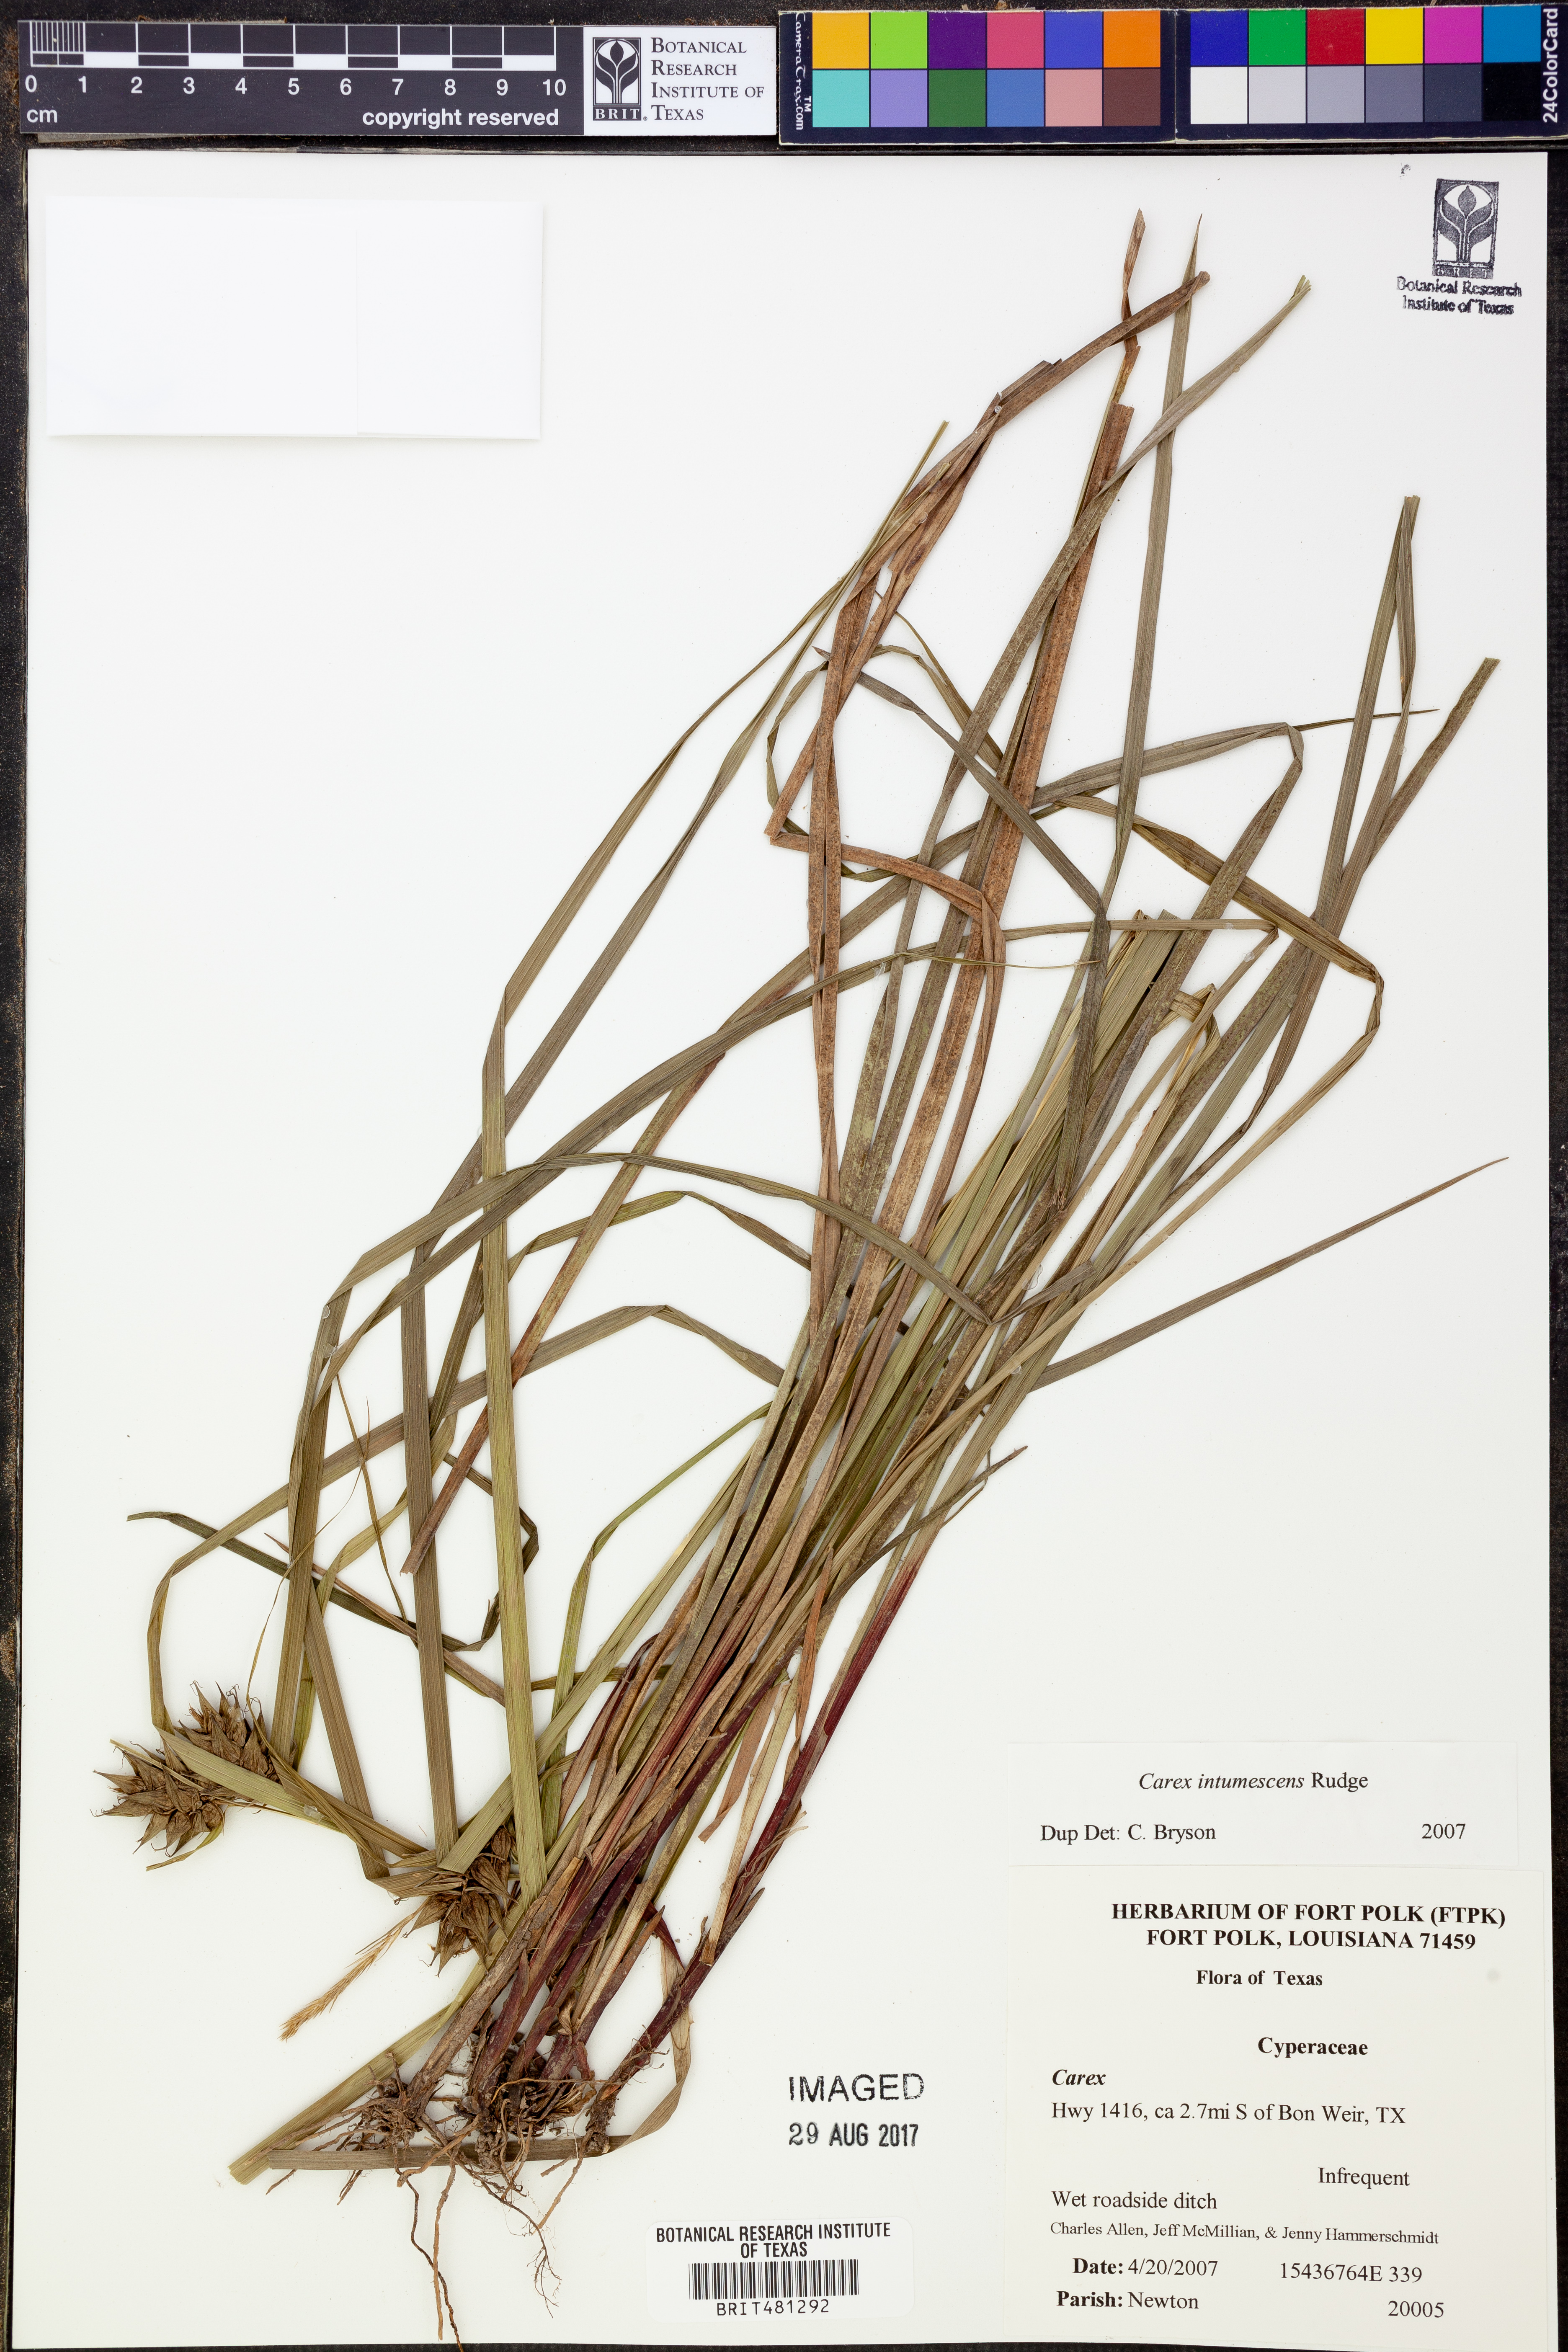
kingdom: Plantae
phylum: Tracheophyta
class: Liliopsida
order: Poales
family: Cyperaceae
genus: Carex
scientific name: Carex intumescens
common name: Greater bladder sedge
